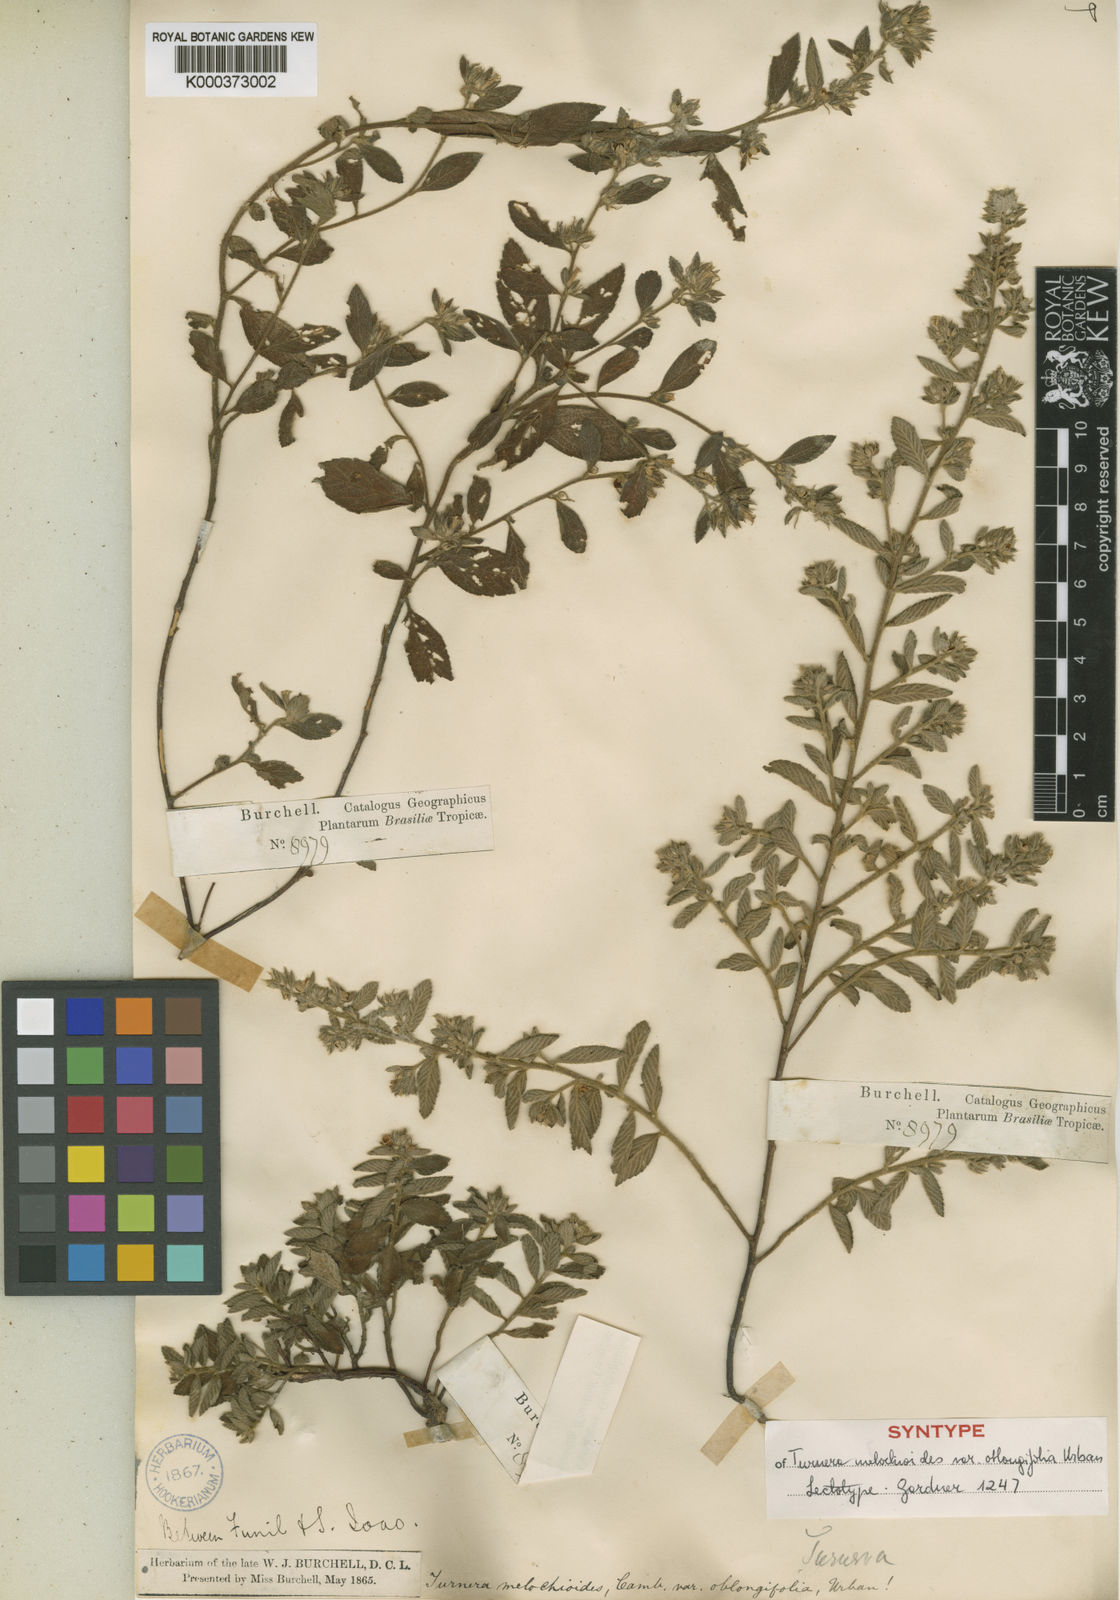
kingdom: Plantae
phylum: Tracheophyta
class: Magnoliopsida
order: Malpighiales
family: Turneraceae
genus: Turnera
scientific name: Turnera arenaria
